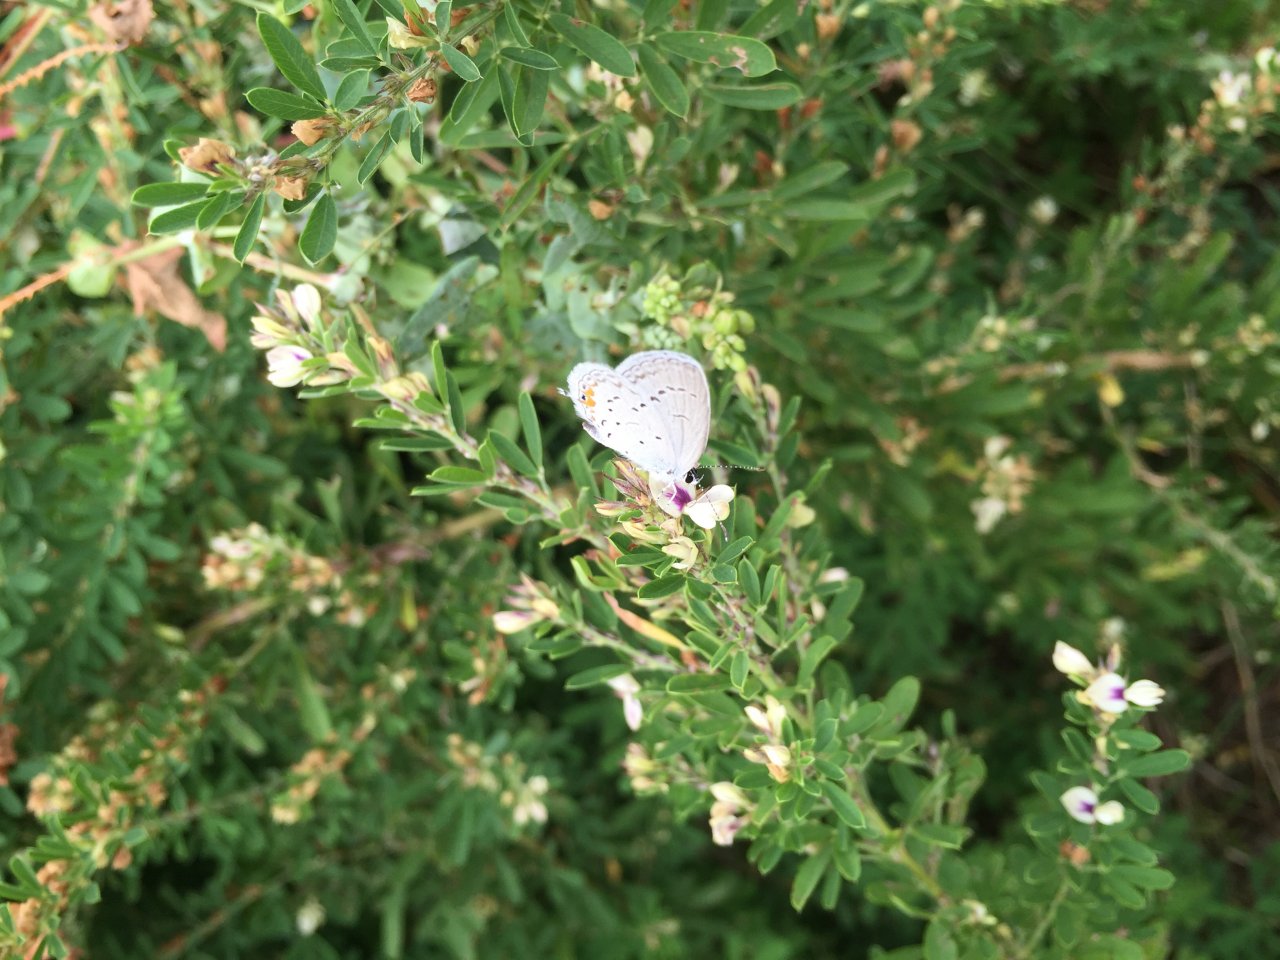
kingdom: Animalia
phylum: Arthropoda
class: Insecta
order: Lepidoptera
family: Lycaenidae
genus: Elkalyce
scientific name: Elkalyce comyntas
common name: Eastern Tailed-Blue
